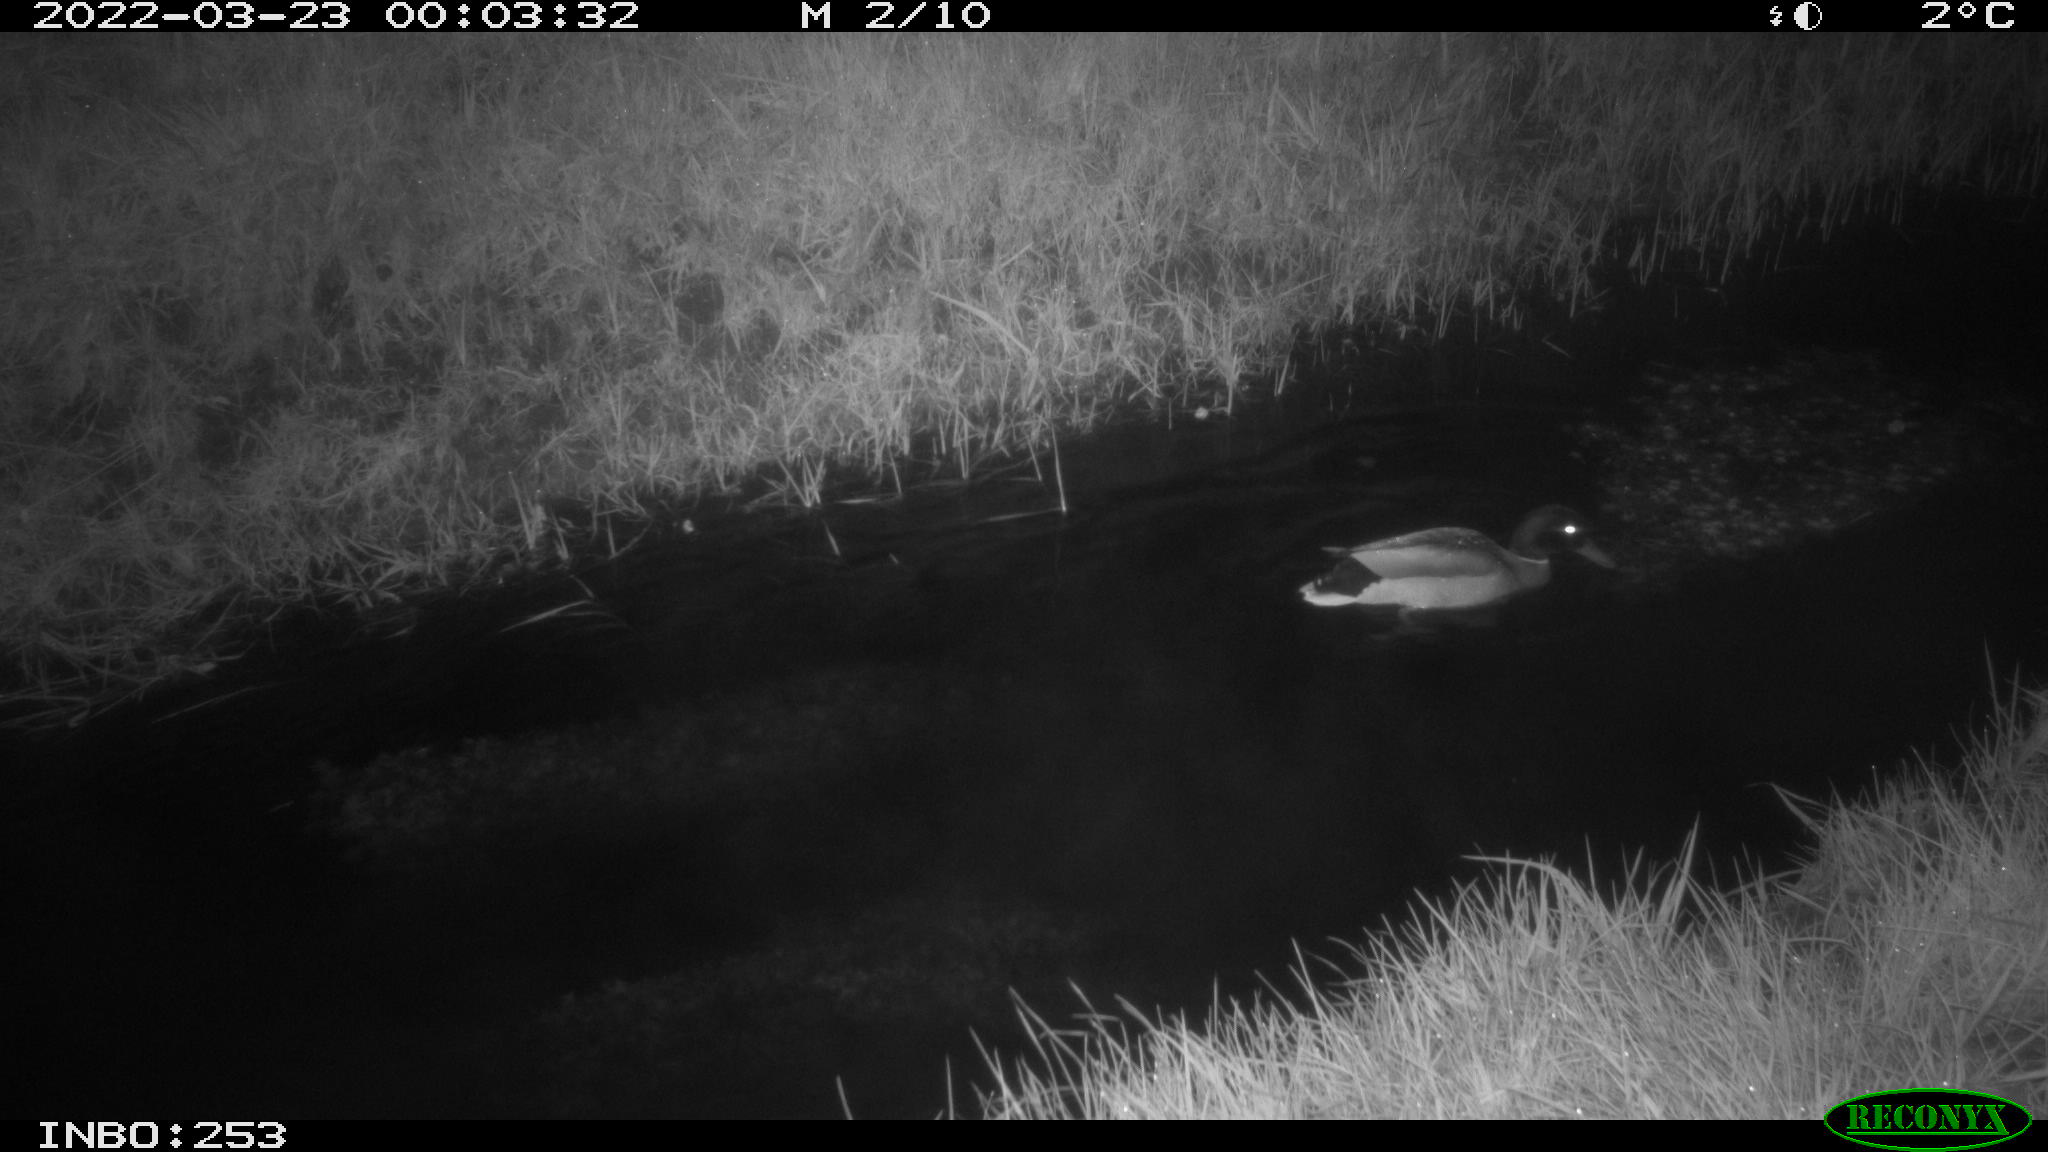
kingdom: Animalia
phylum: Chordata
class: Aves
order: Anseriformes
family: Anatidae
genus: Anas
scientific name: Anas platyrhynchos
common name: Mallard
